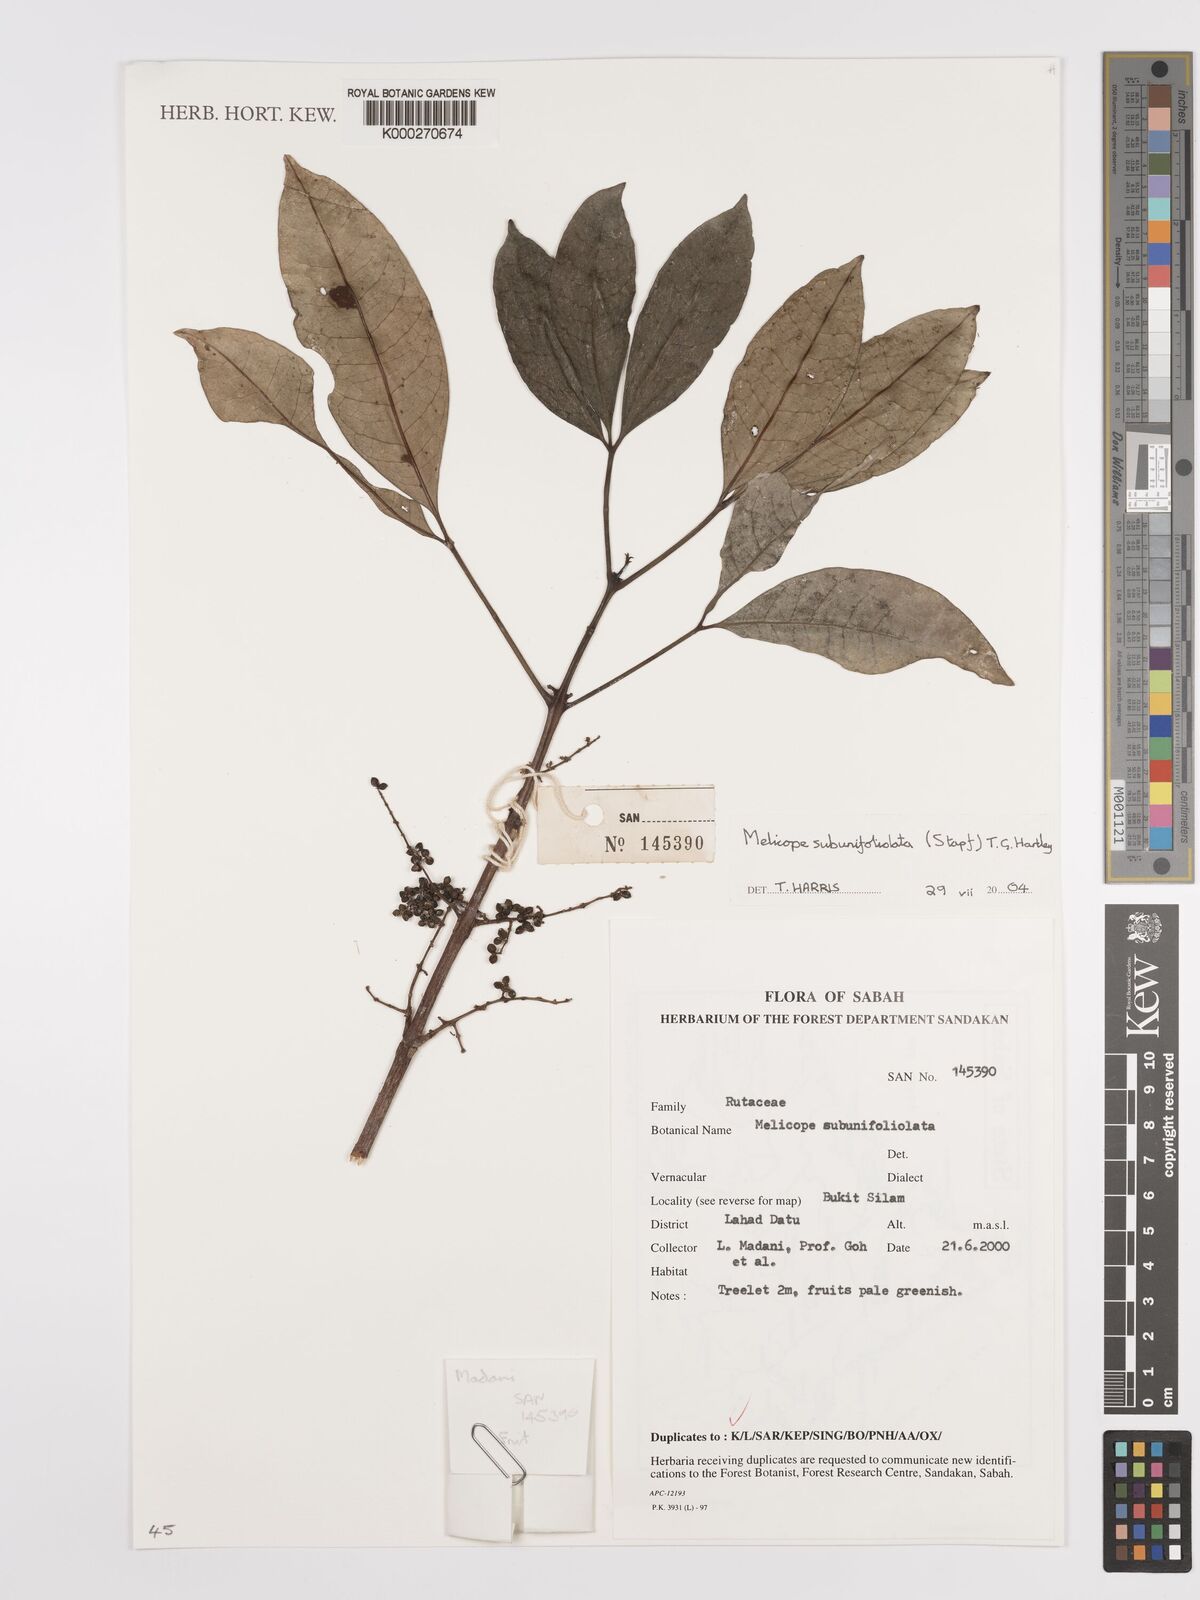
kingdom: Plantae
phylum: Tracheophyta
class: Magnoliopsida
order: Sapindales
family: Rutaceae
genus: Melicope
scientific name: Melicope
